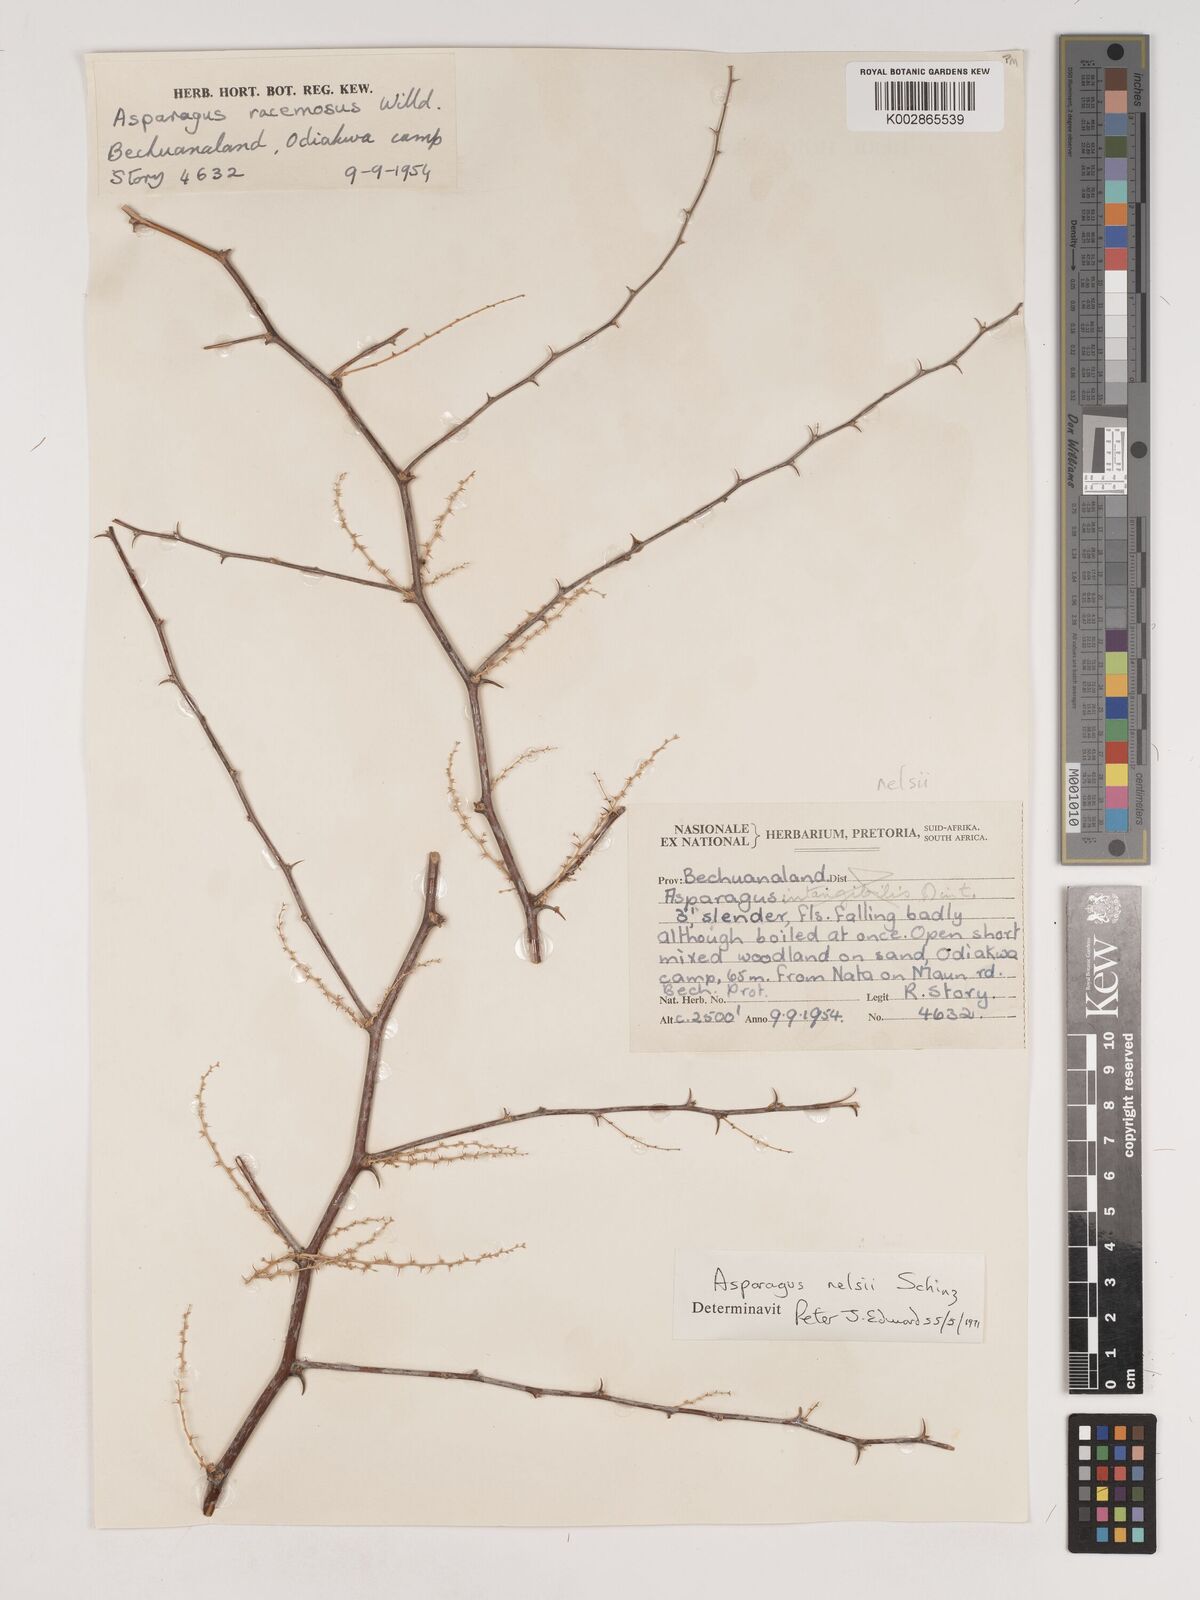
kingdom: Plantae
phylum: Tracheophyta
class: Liliopsida
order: Asparagales
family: Asparagaceae
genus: Asparagus
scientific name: Asparagus nelsii
